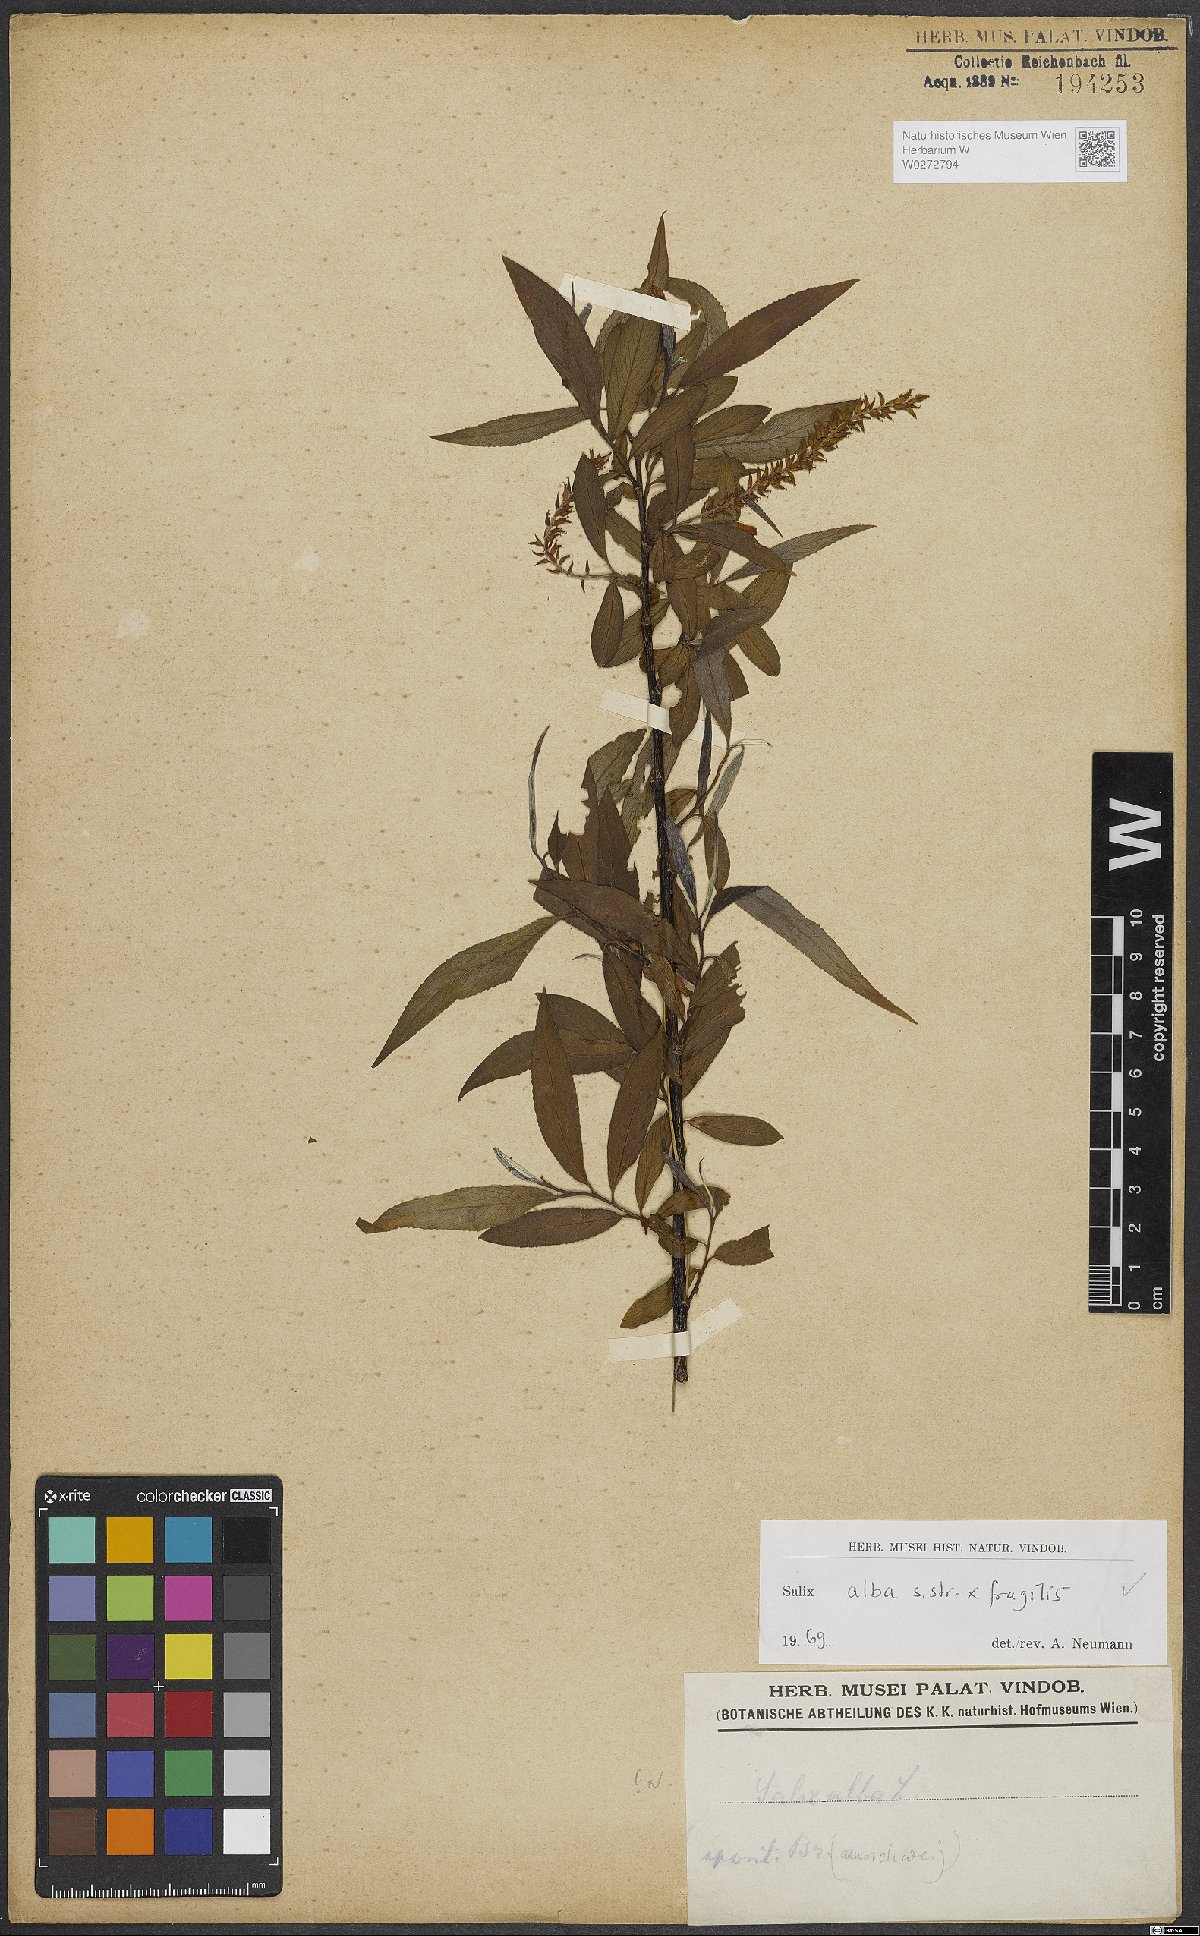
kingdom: Plantae
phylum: Tracheophyta
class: Magnoliopsida
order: Malpighiales
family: Salicaceae
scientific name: Salicaceae
